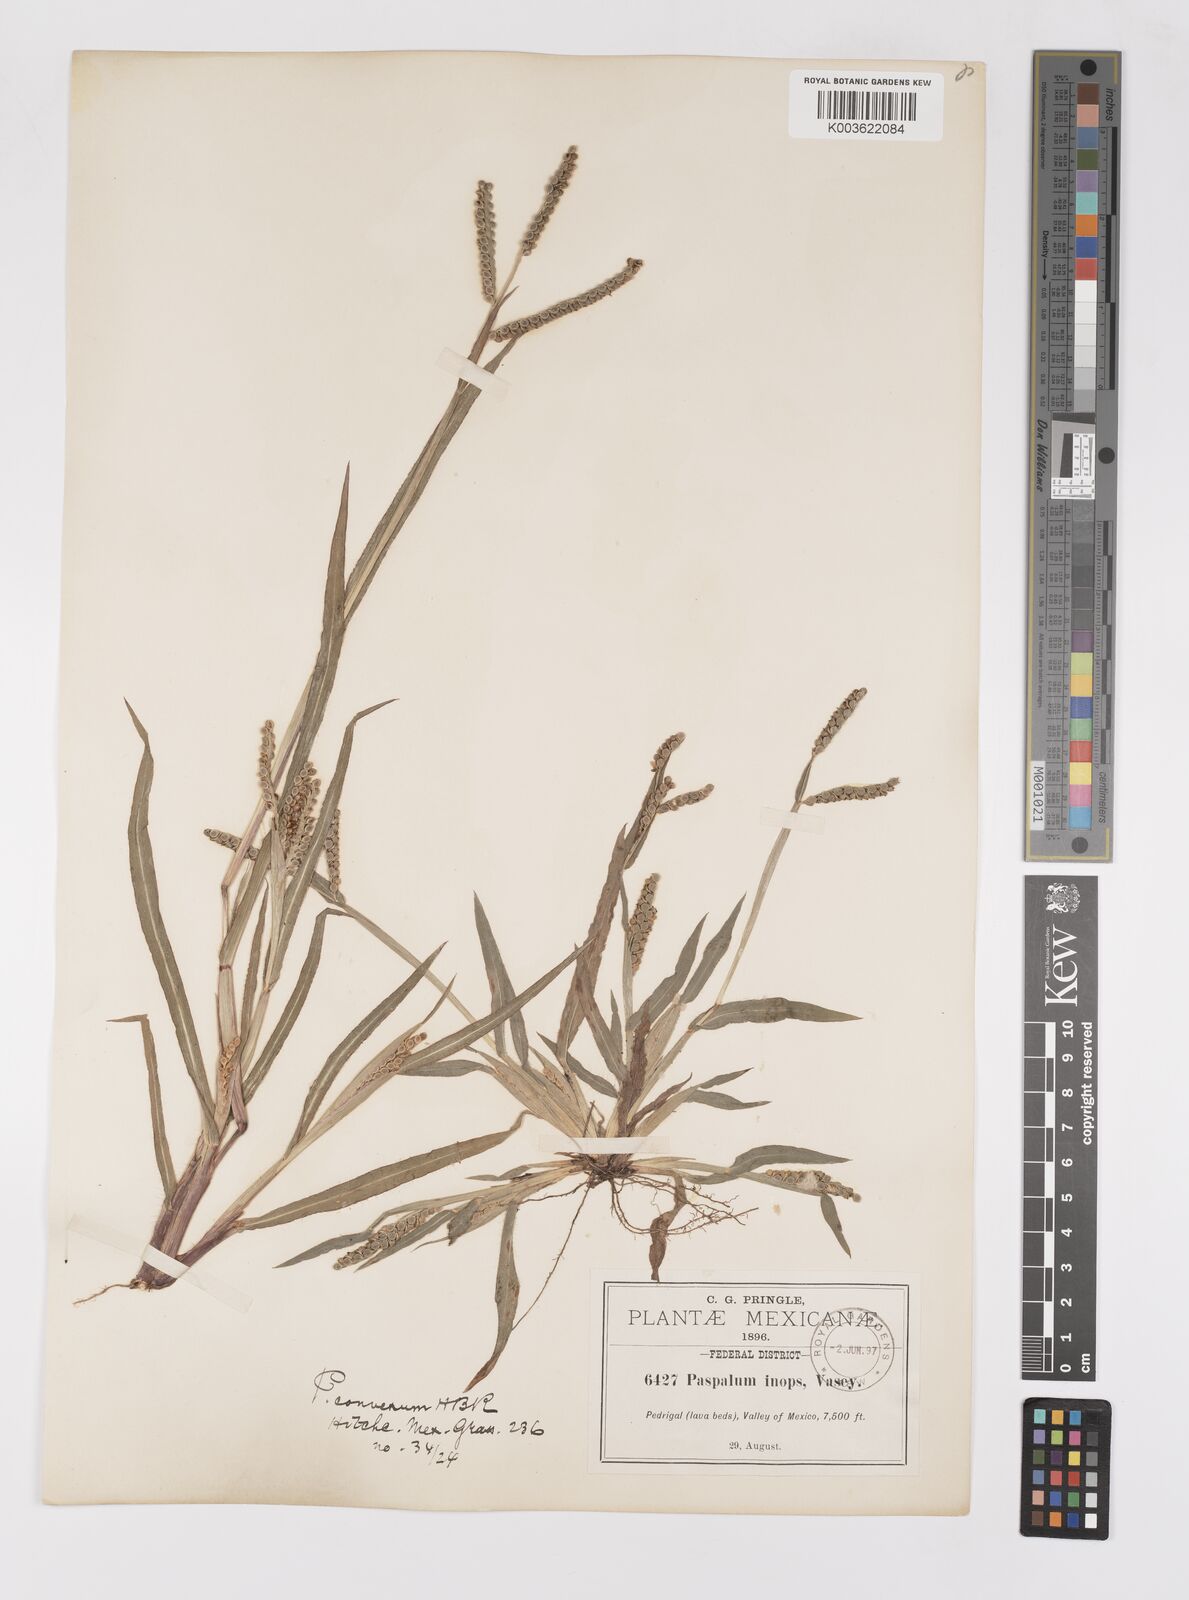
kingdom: Plantae
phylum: Tracheophyta
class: Liliopsida
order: Poales
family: Poaceae
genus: Paspalum
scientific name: Paspalum convexum
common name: Latin american crowngrass
